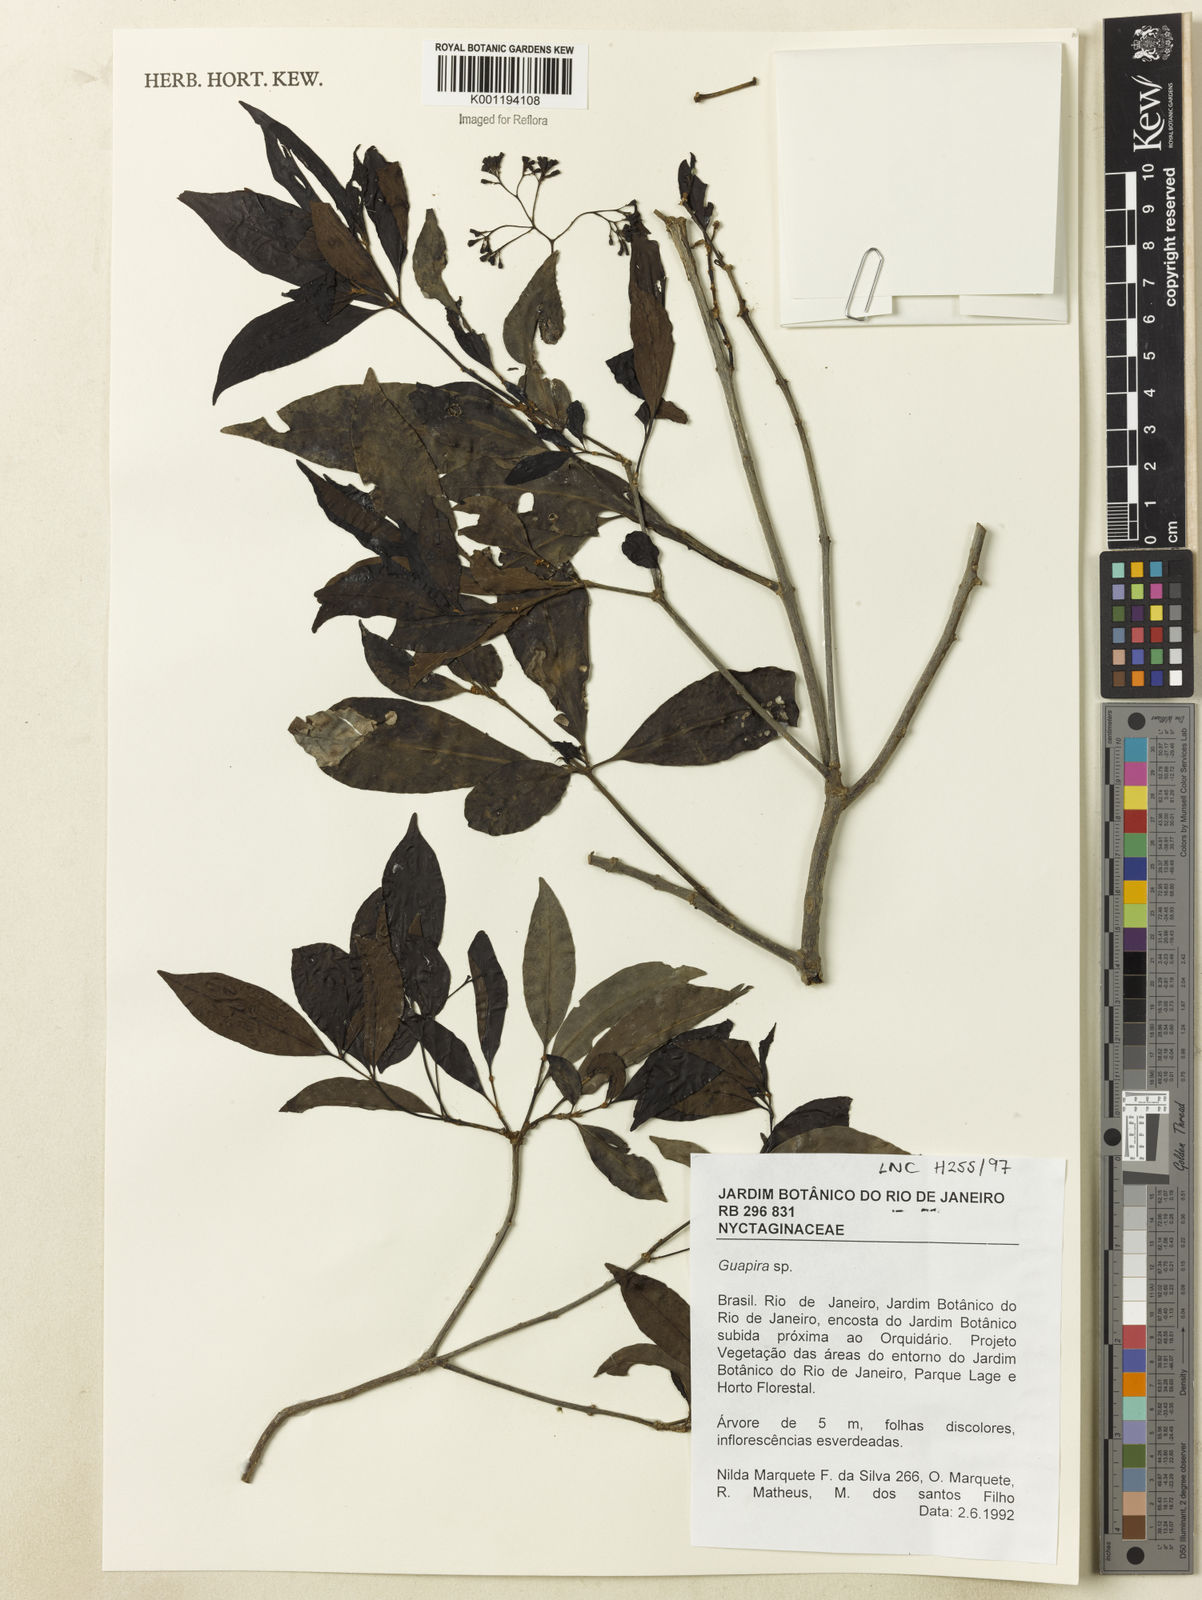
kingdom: Plantae
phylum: Tracheophyta
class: Magnoliopsida
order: Caryophyllales
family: Nyctaginaceae
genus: Guapira
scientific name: Guapira
